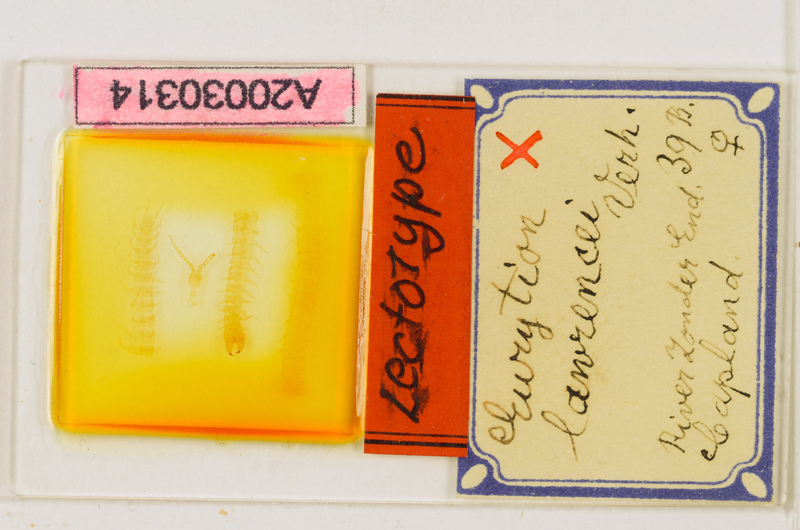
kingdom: Animalia
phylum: Arthropoda
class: Chilopoda
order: Geophilomorpha
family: Geophilidae
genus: Eurytion
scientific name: Eurytion lawrencei
